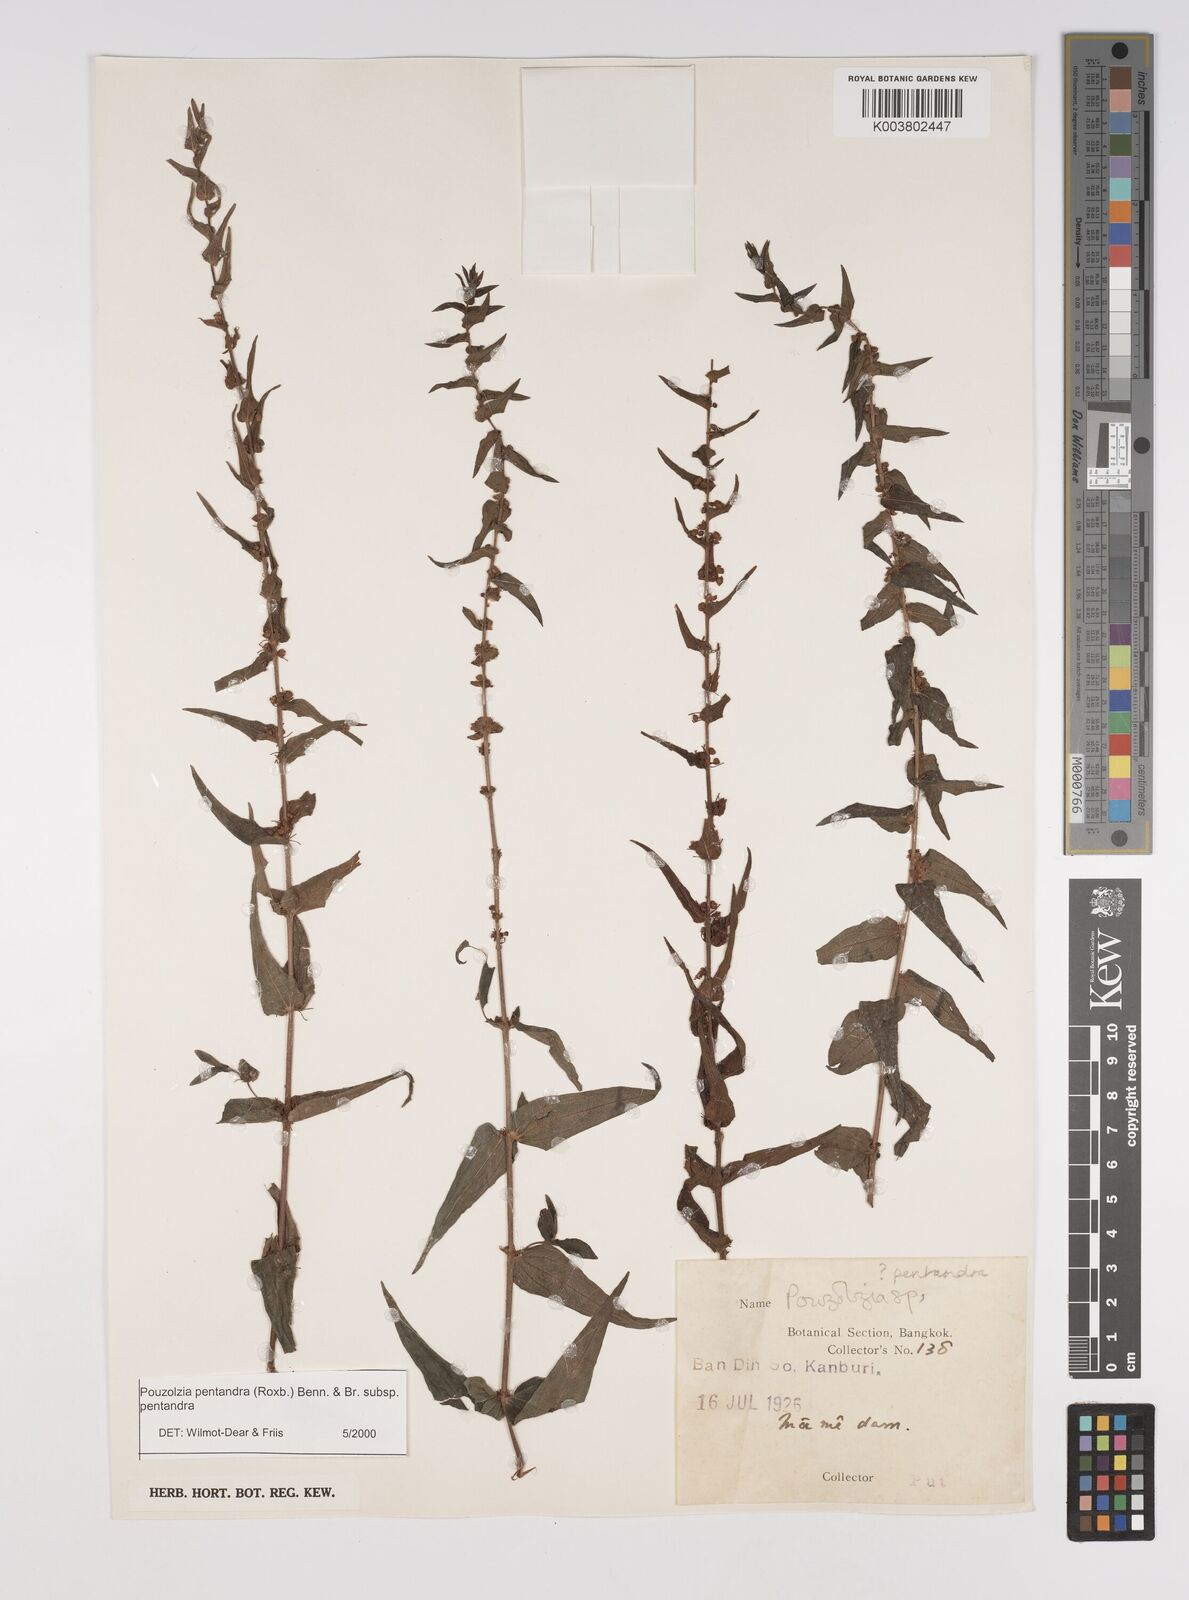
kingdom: Plantae
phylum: Tracheophyta
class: Magnoliopsida
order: Rosales
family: Urticaceae
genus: Gonostegia
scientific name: Gonostegia pentandra
